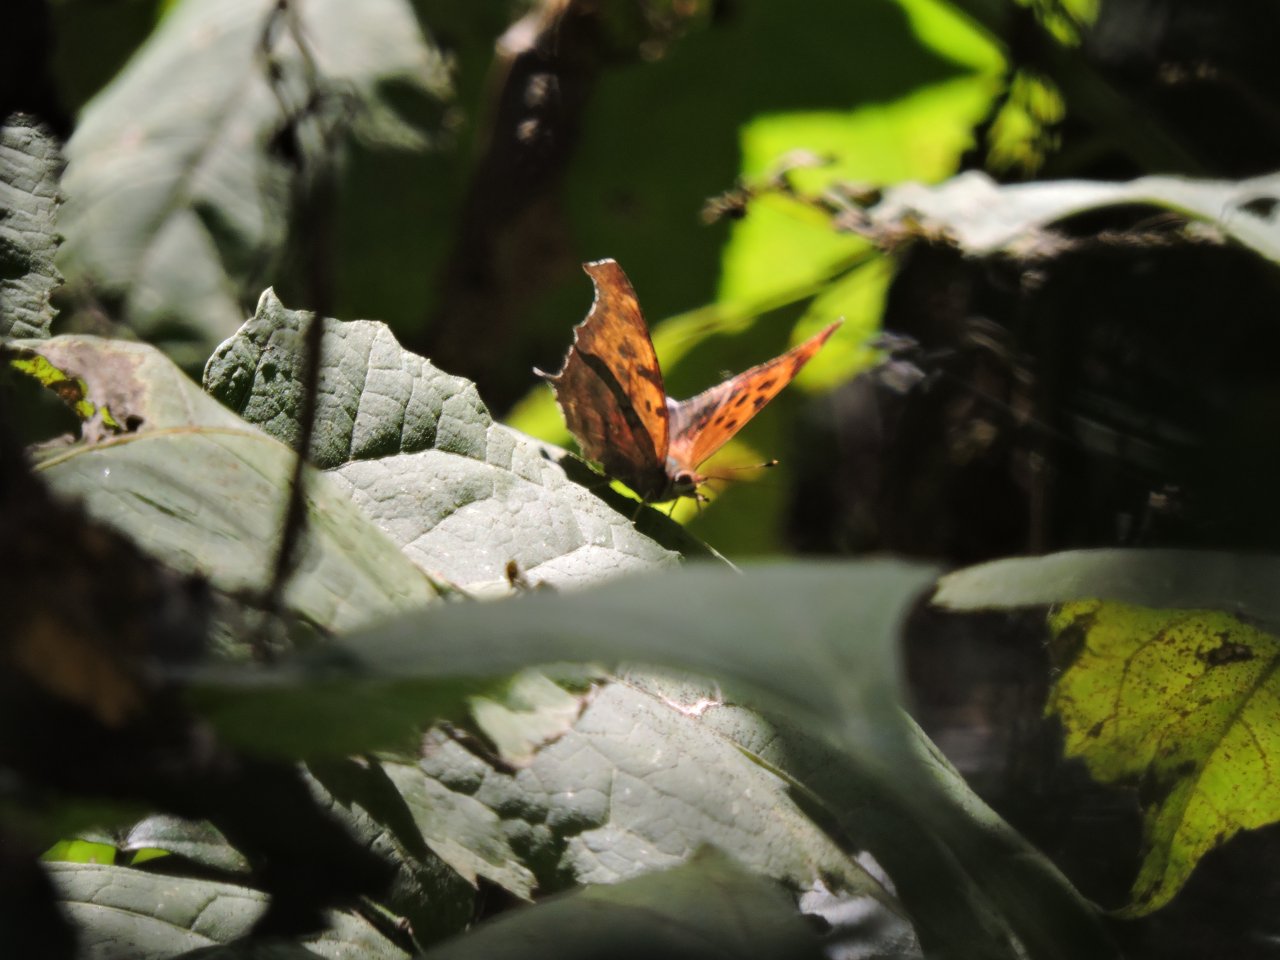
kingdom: Animalia
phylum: Arthropoda
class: Insecta
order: Lepidoptera
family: Nymphalidae
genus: Polygonia
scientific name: Polygonia interrogationis
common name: Question Mark
